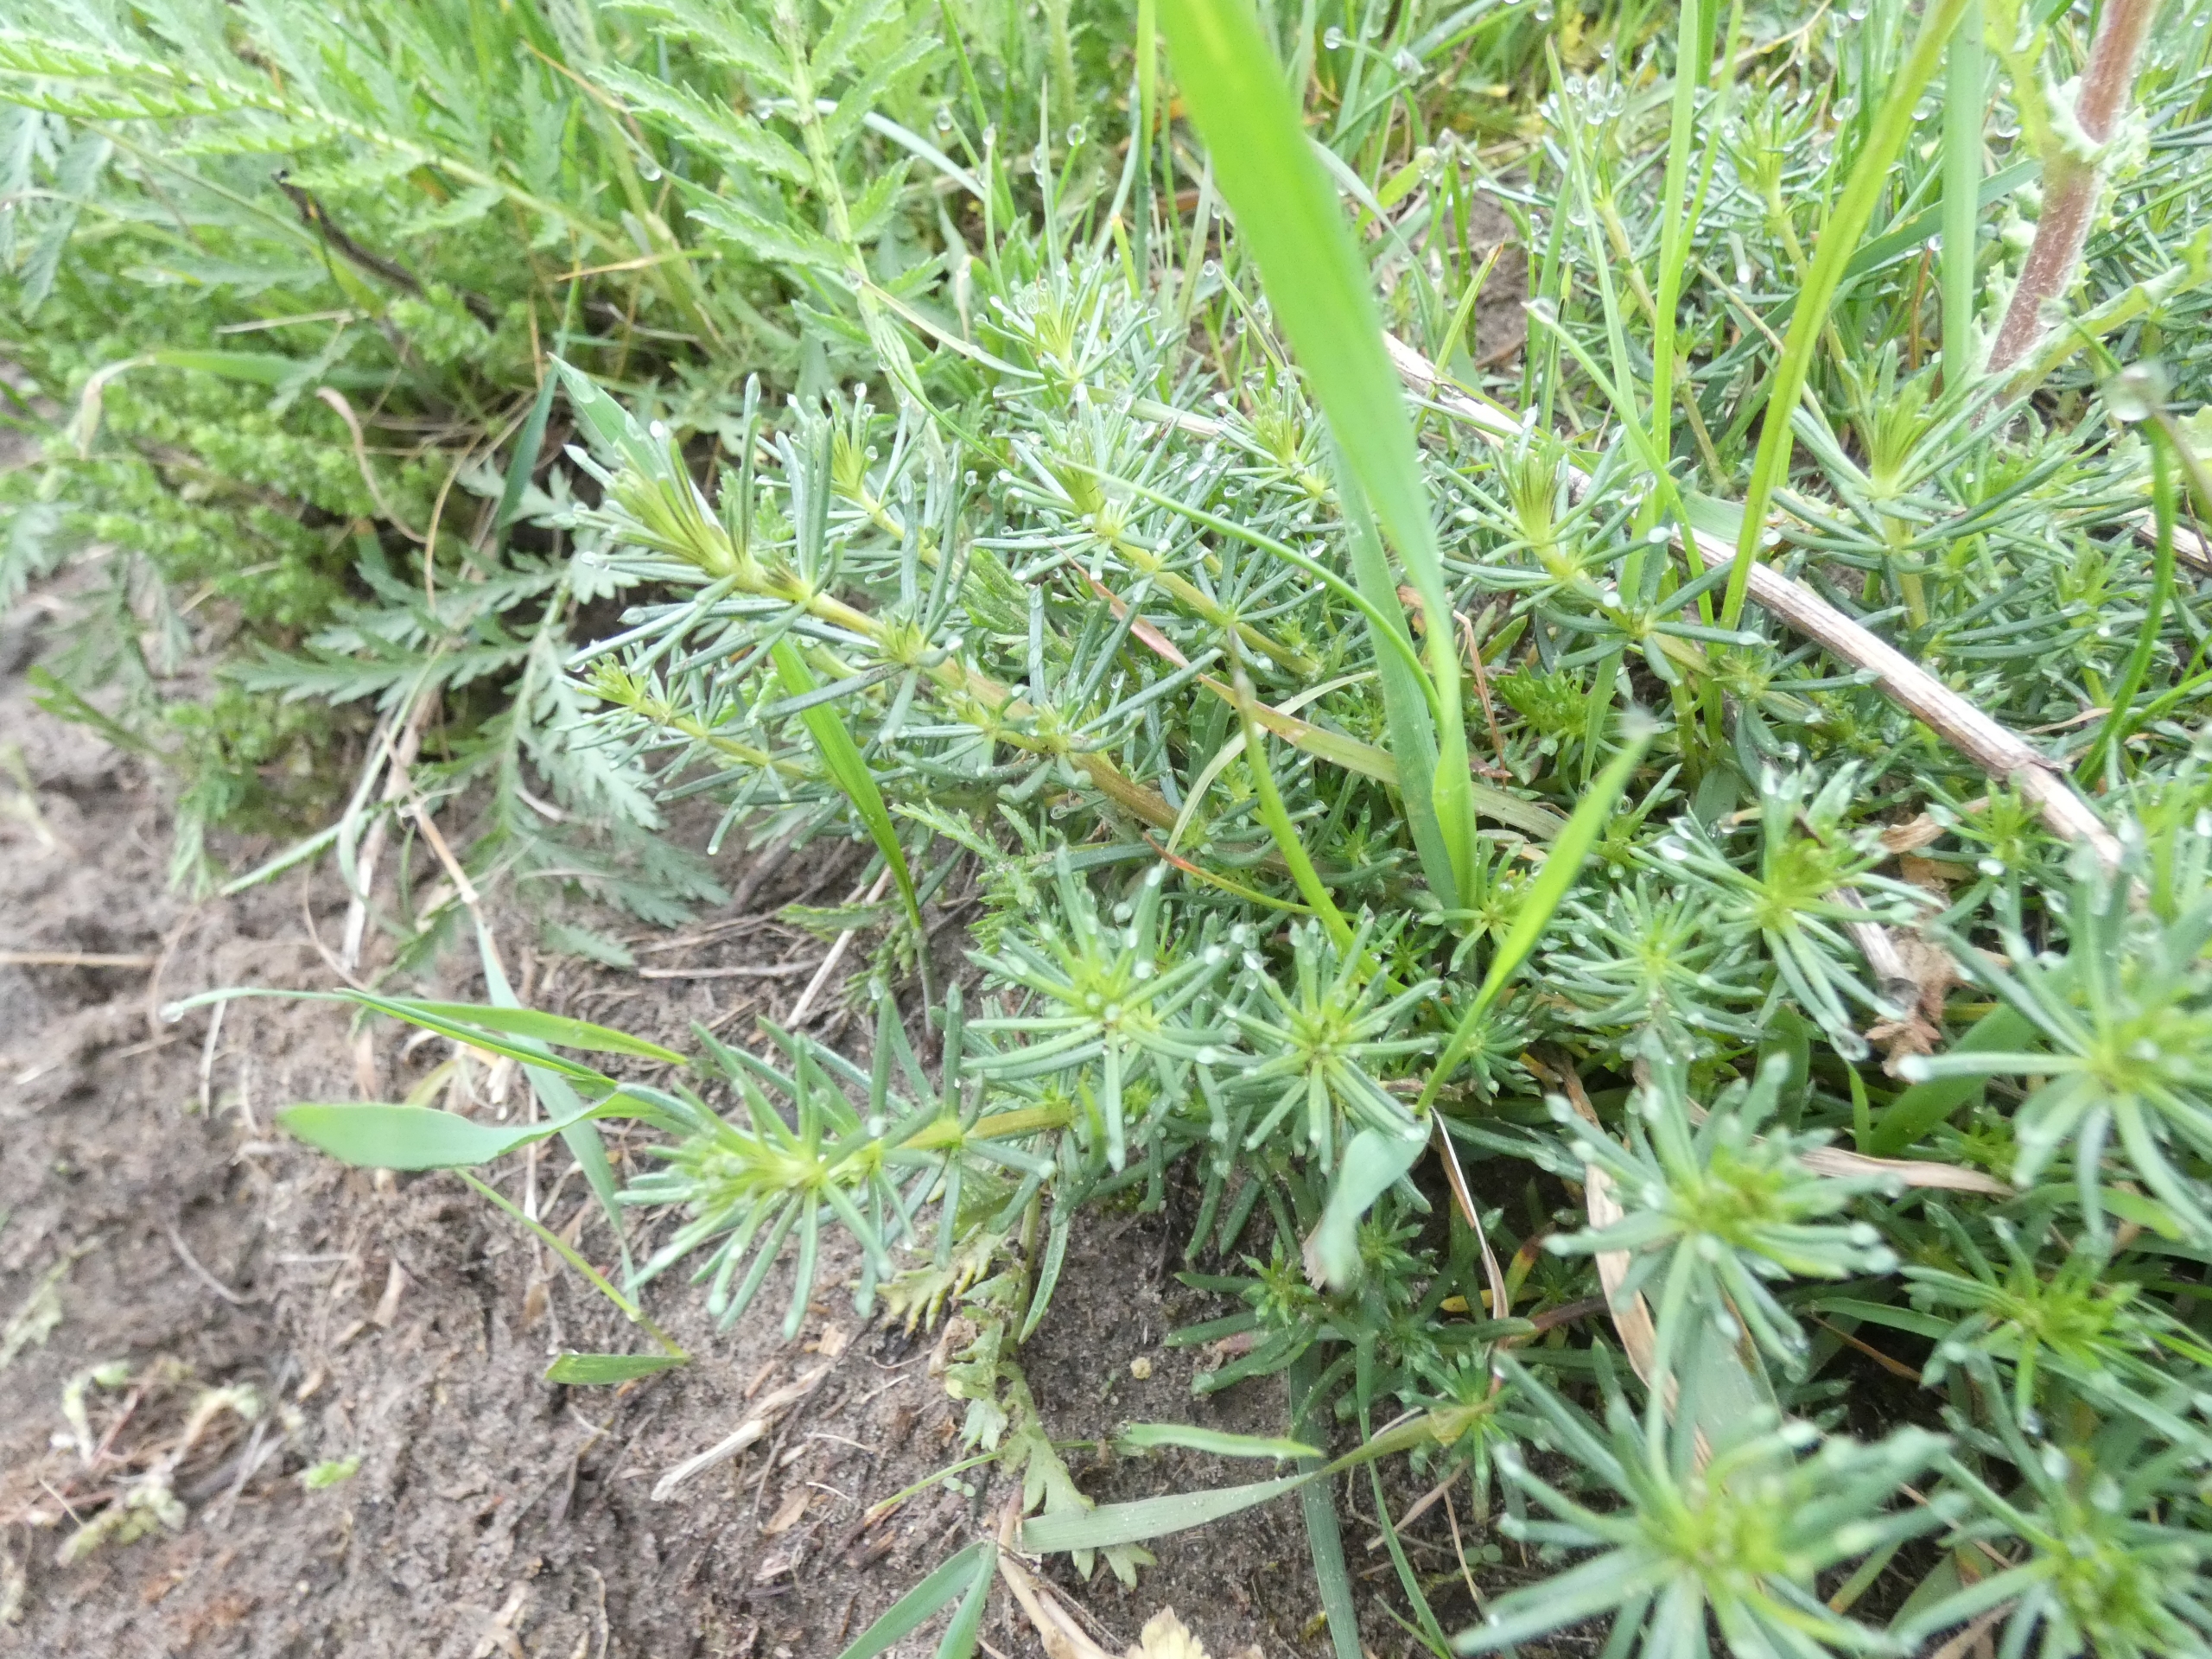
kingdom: Plantae
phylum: Tracheophyta
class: Magnoliopsida
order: Gentianales
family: Rubiaceae
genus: Galium
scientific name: Galium verum
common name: Gul snerre
